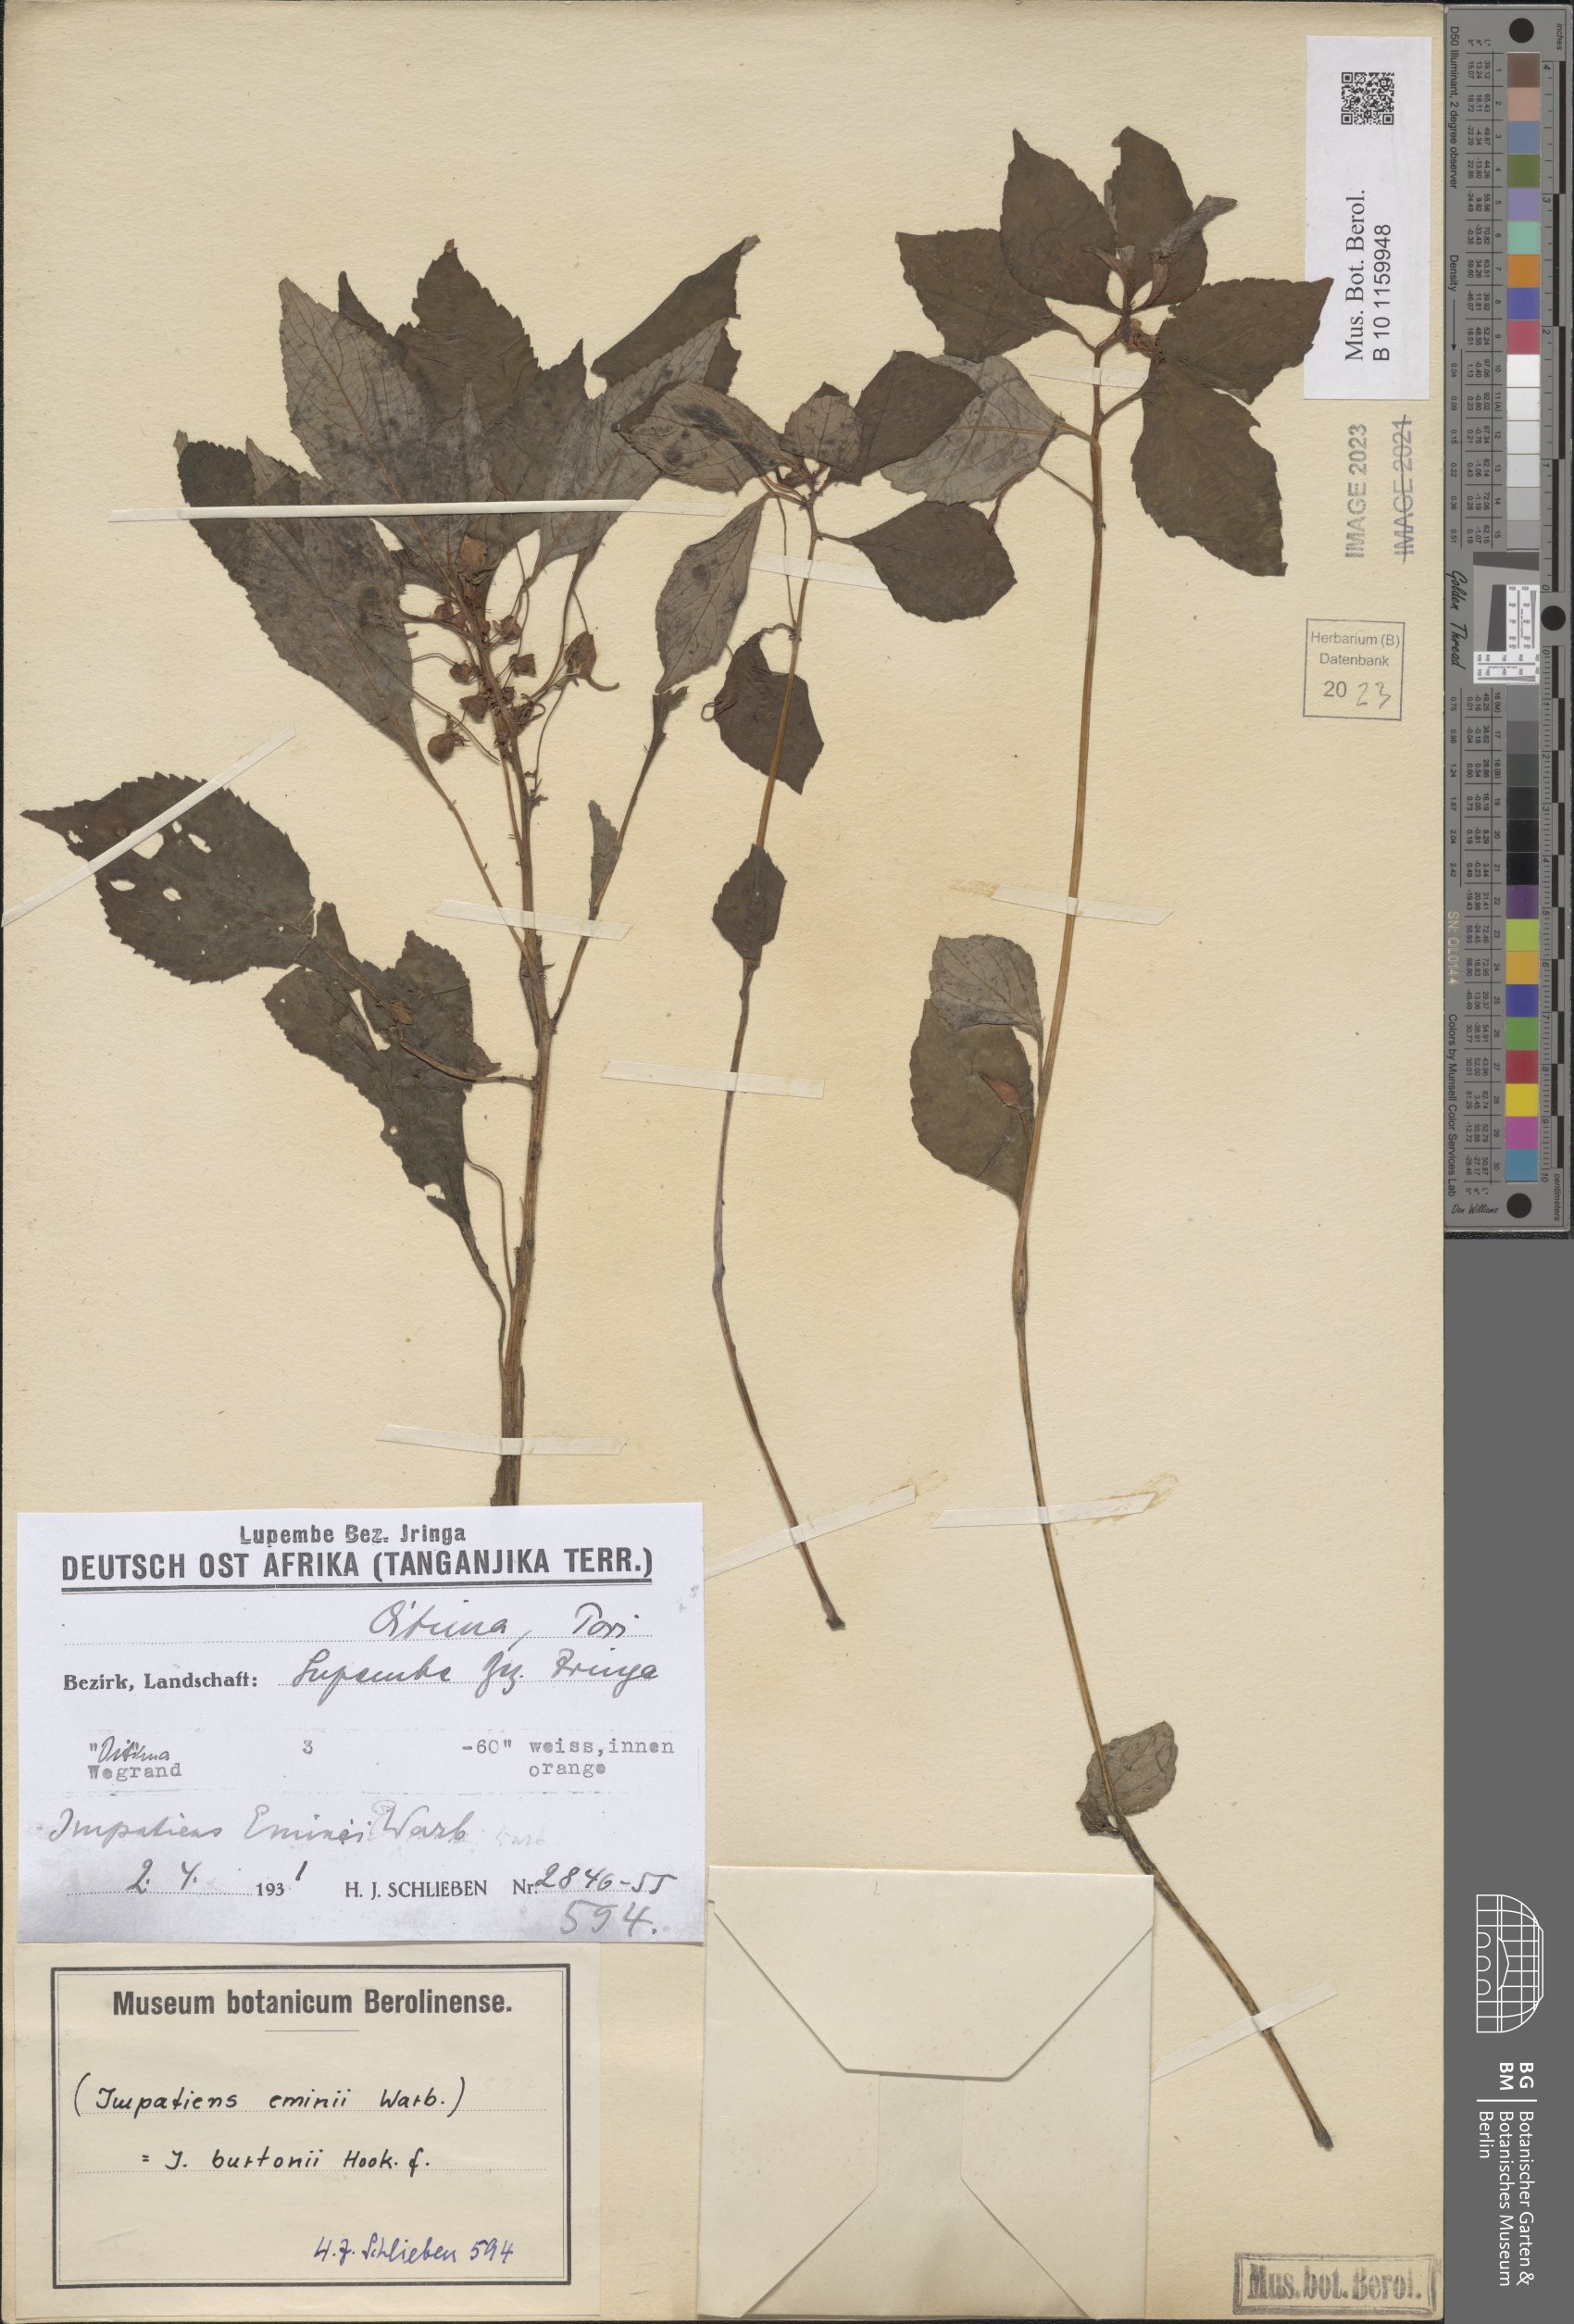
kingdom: Plantae
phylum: Tracheophyta
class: Magnoliopsida
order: Ericales
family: Balsaminaceae
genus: Impatiens
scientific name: Impatiens burtonii
